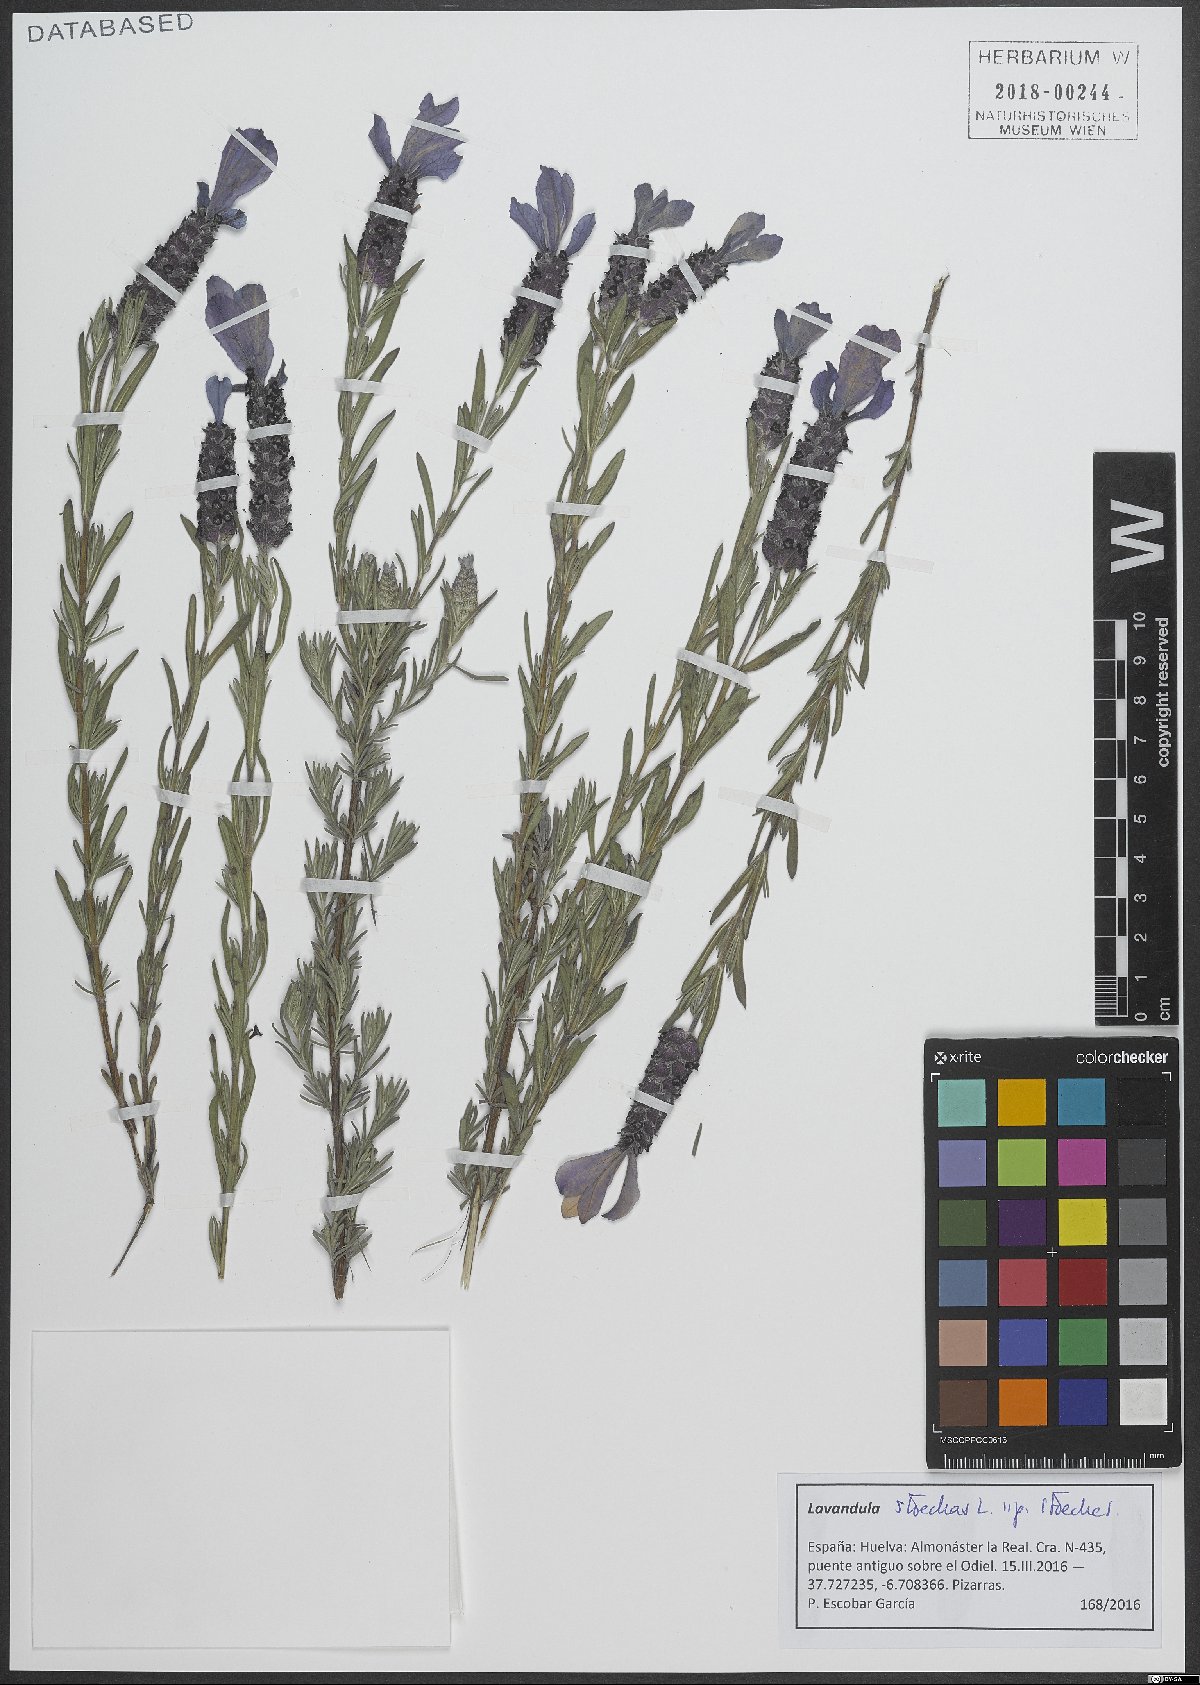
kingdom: Plantae
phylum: Tracheophyta
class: Magnoliopsida
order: Lamiales
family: Lamiaceae
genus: Lavandula
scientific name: Lavandula stoechas
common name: French lavender
